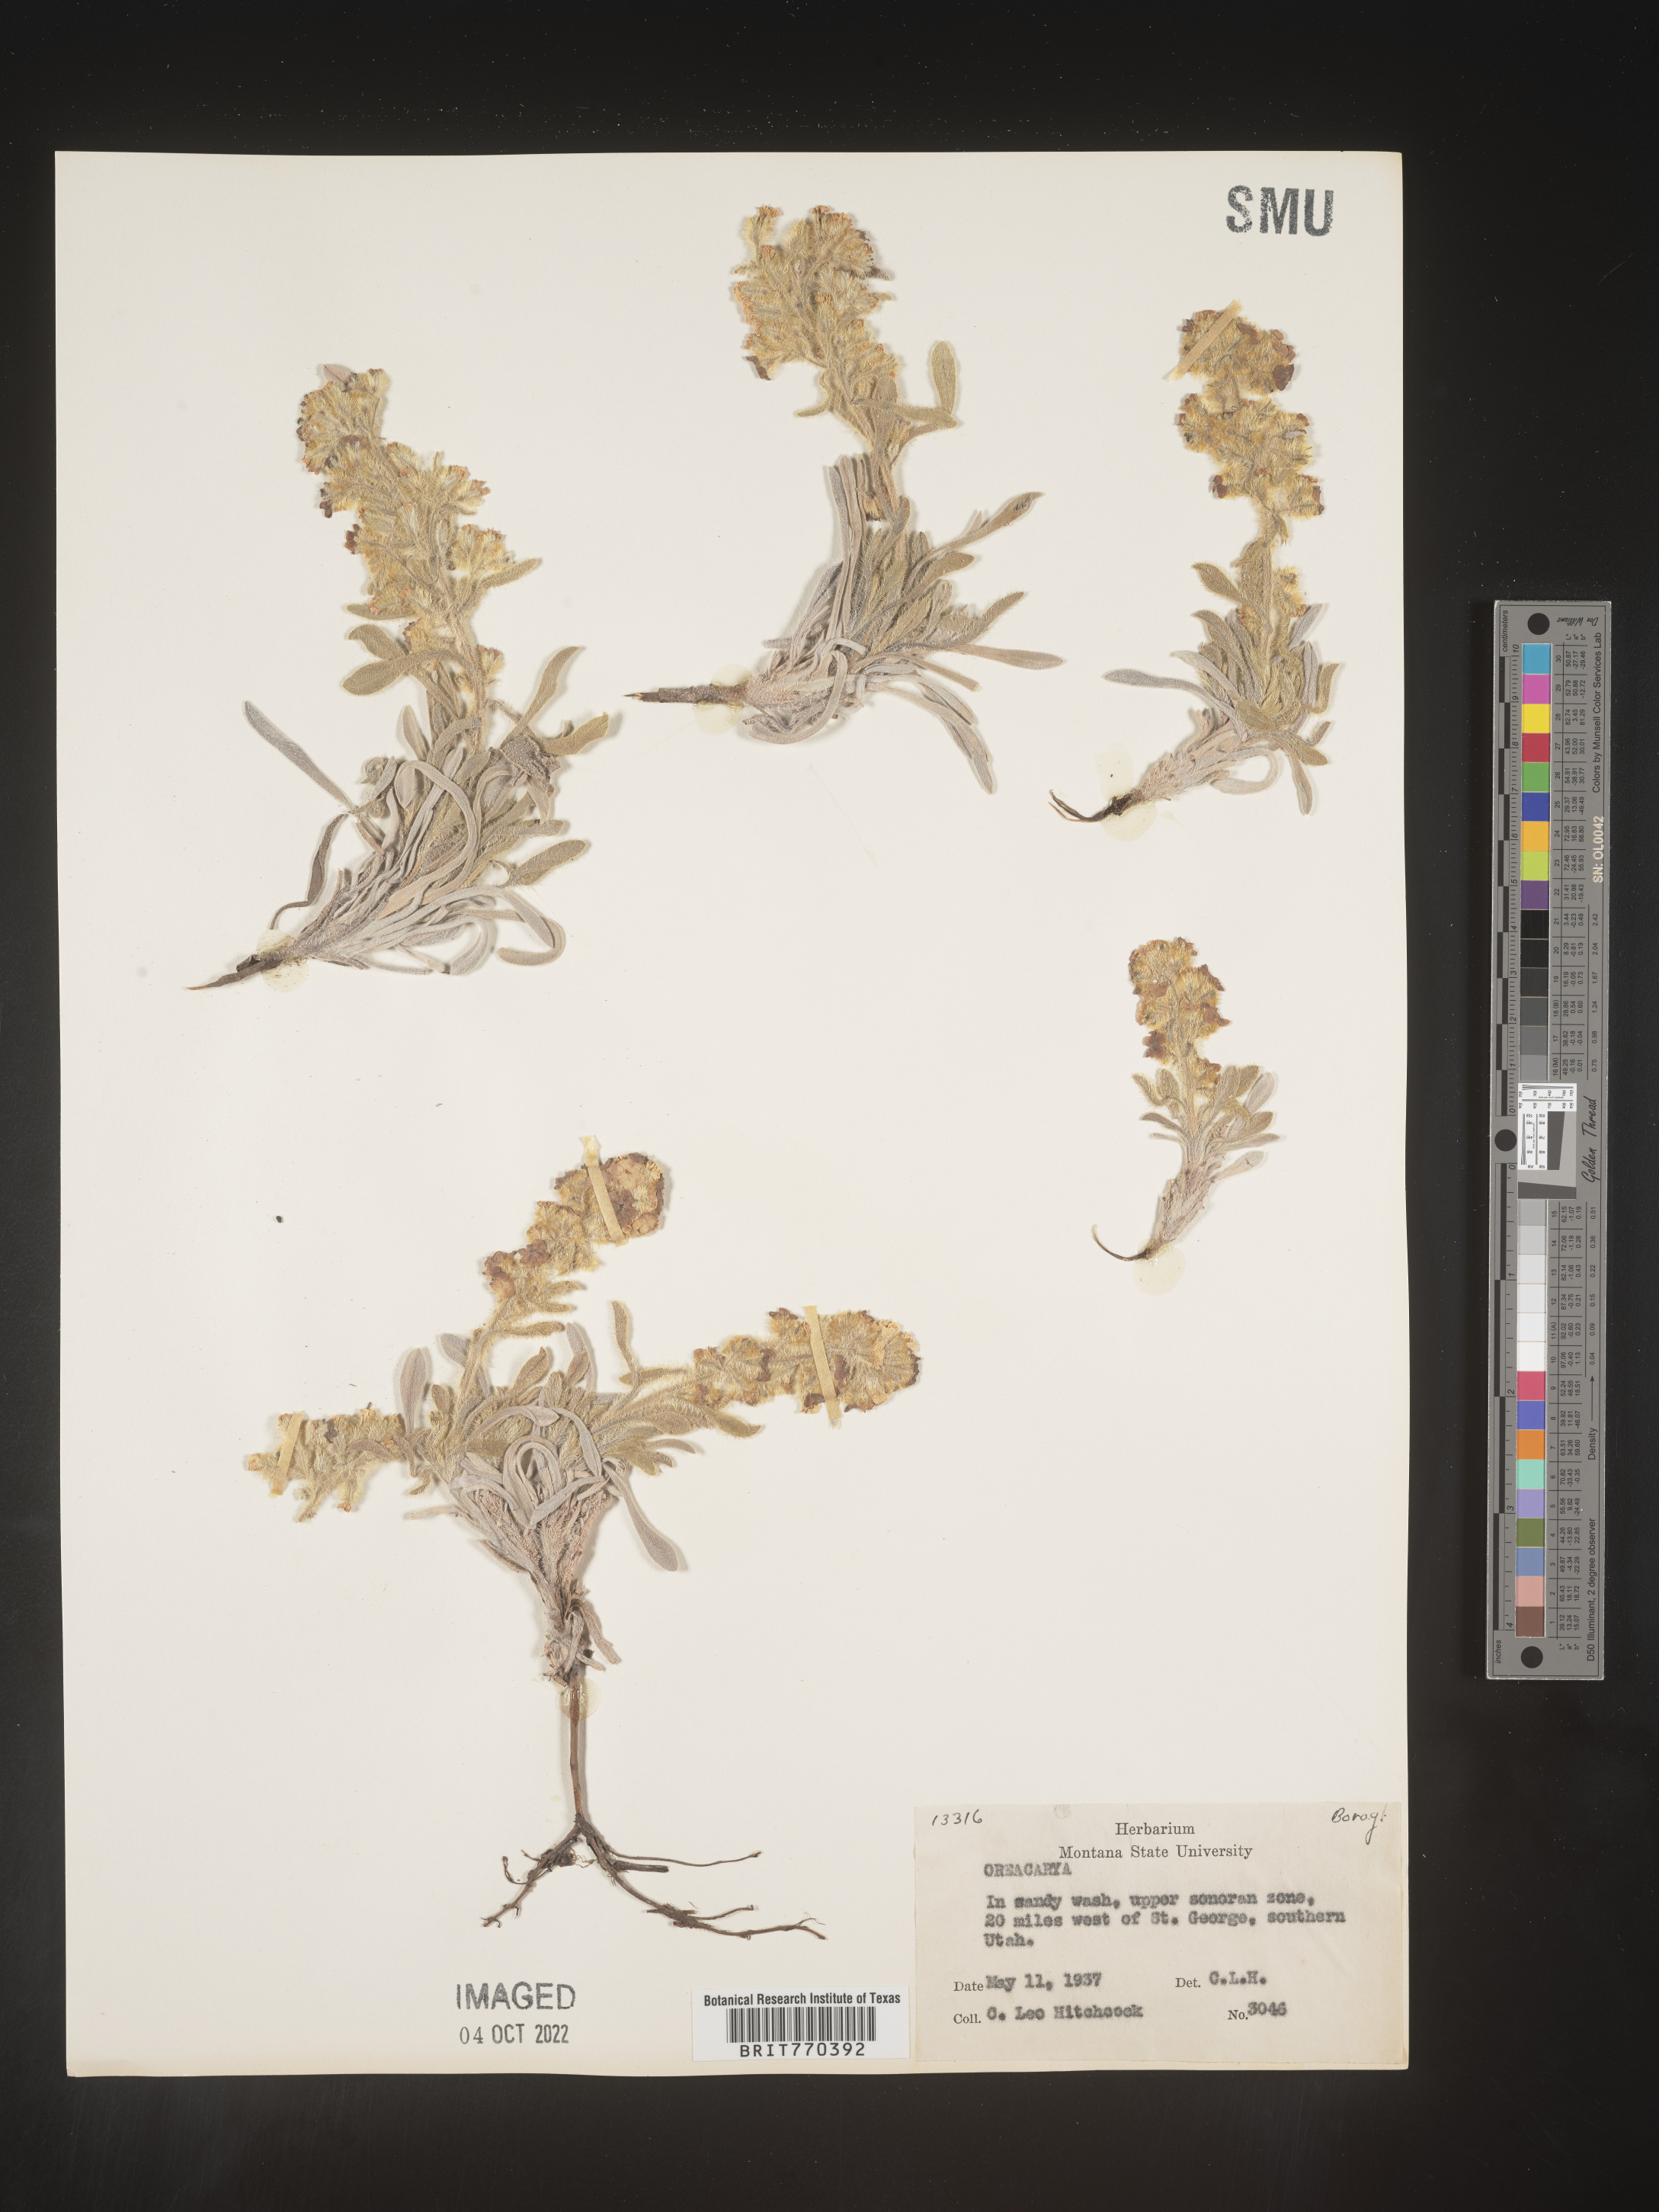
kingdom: Plantae
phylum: Tracheophyta
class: Magnoliopsida
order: Boraginales
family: Boraginaceae
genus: Oreocarya
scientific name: Oreocarya
